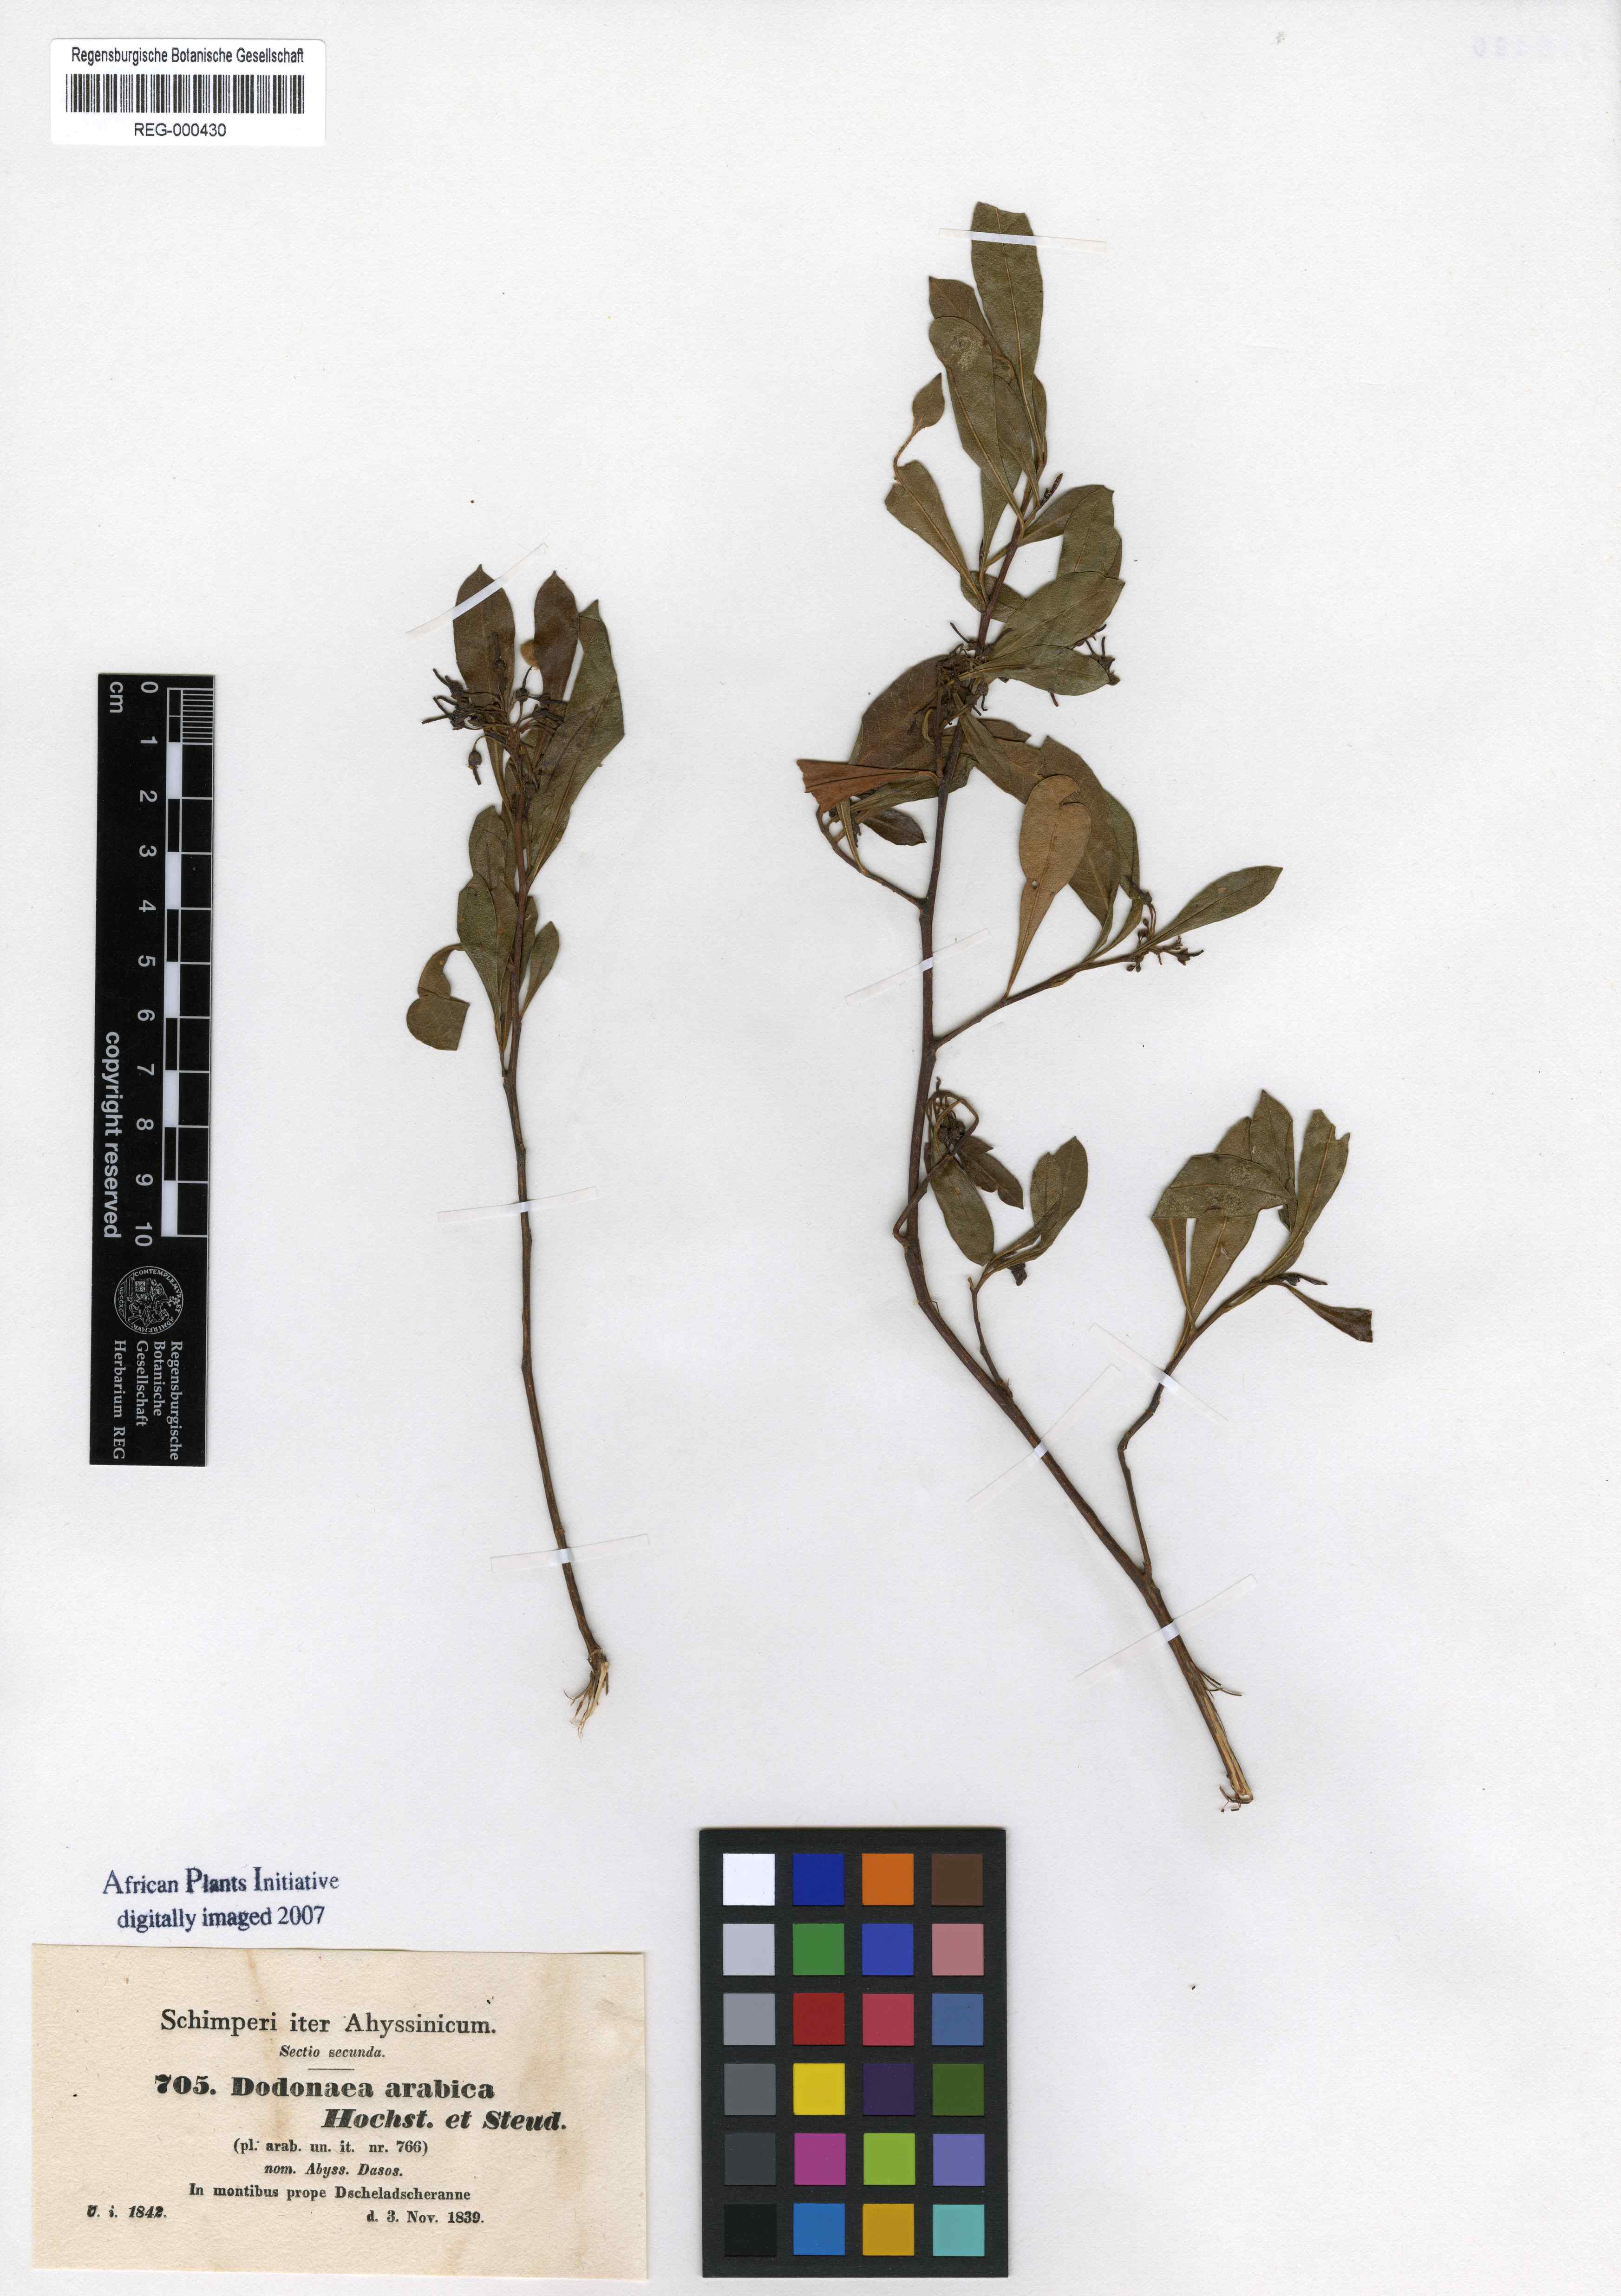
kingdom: Plantae
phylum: Tracheophyta
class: Magnoliopsida
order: Sapindales
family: Sapindaceae
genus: Dodonaea
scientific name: Dodonaea viscosa
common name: Hopbush
